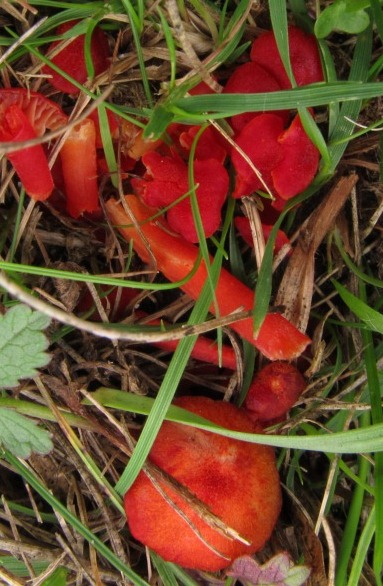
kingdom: Fungi
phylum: Basidiomycota
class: Agaricomycetes
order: Agaricales
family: Hygrophoraceae
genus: Hygrocybe
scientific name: Hygrocybe helobia
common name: hvidløgs-vokshat
